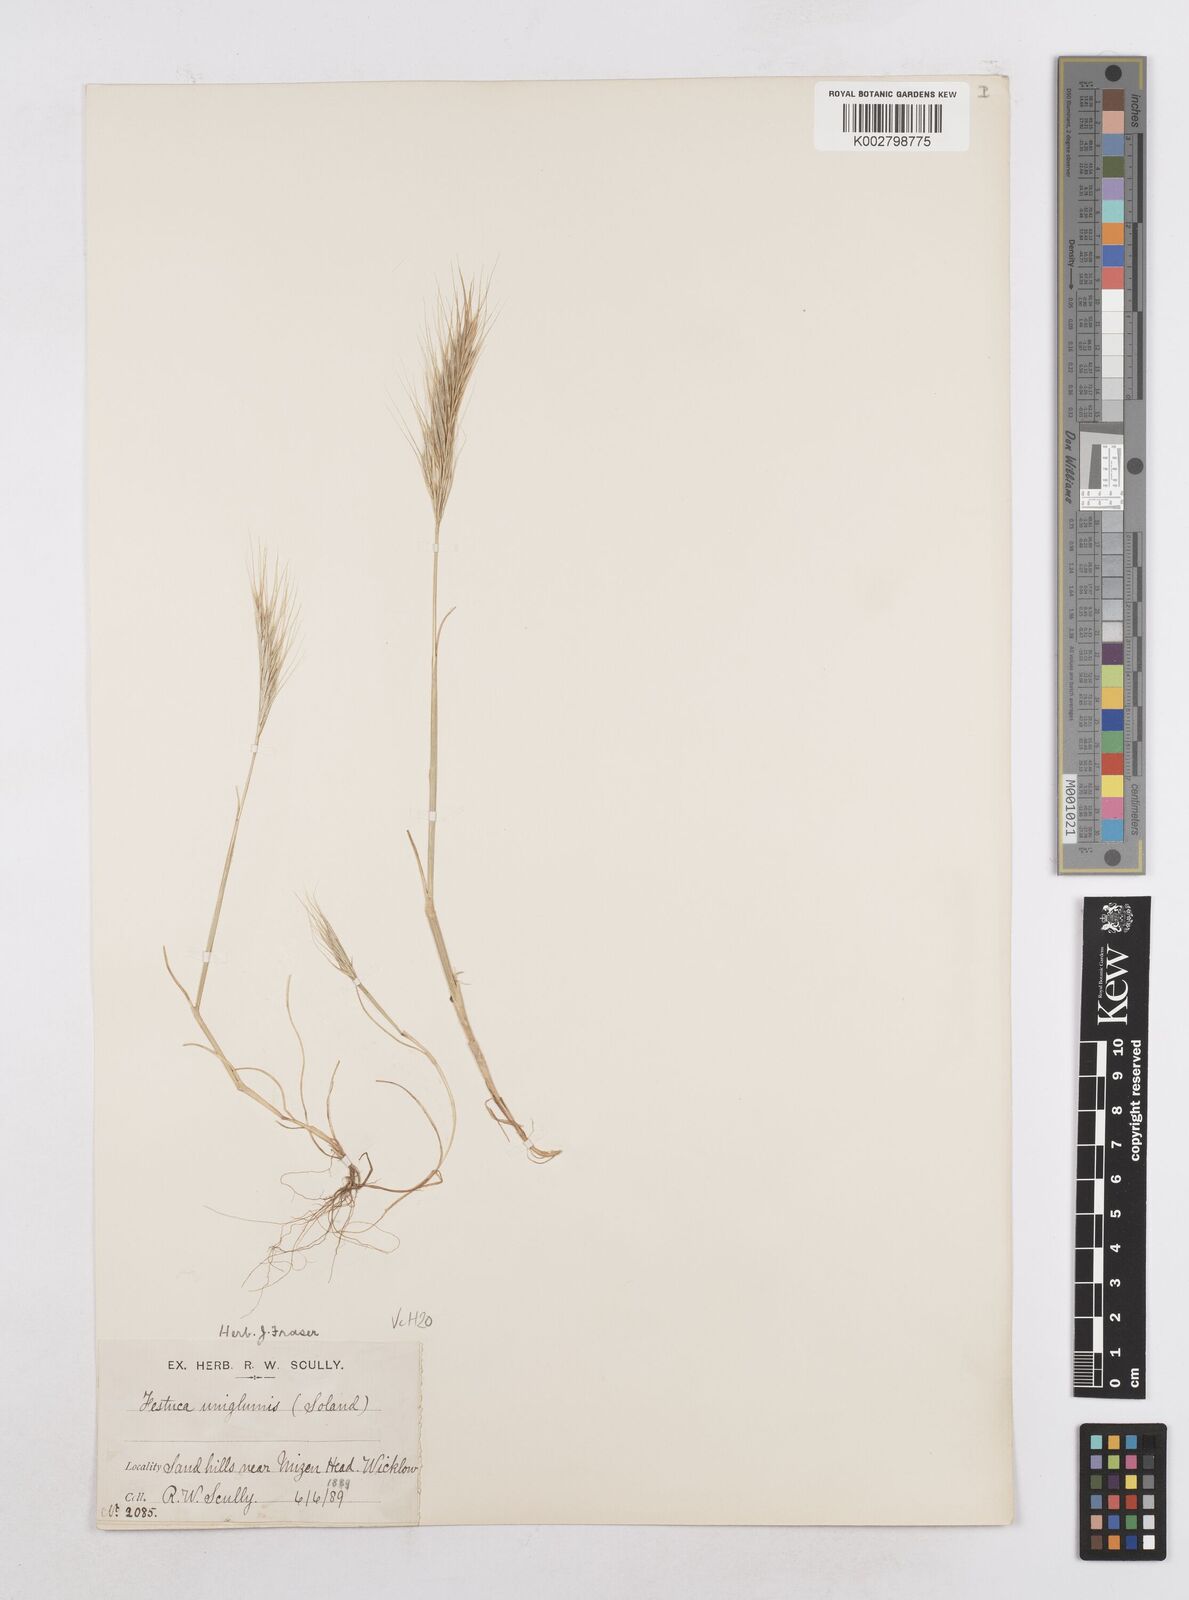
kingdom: Plantae
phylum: Tracheophyta
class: Liliopsida
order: Poales
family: Poaceae
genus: Festuca
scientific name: Festuca fasciculata
